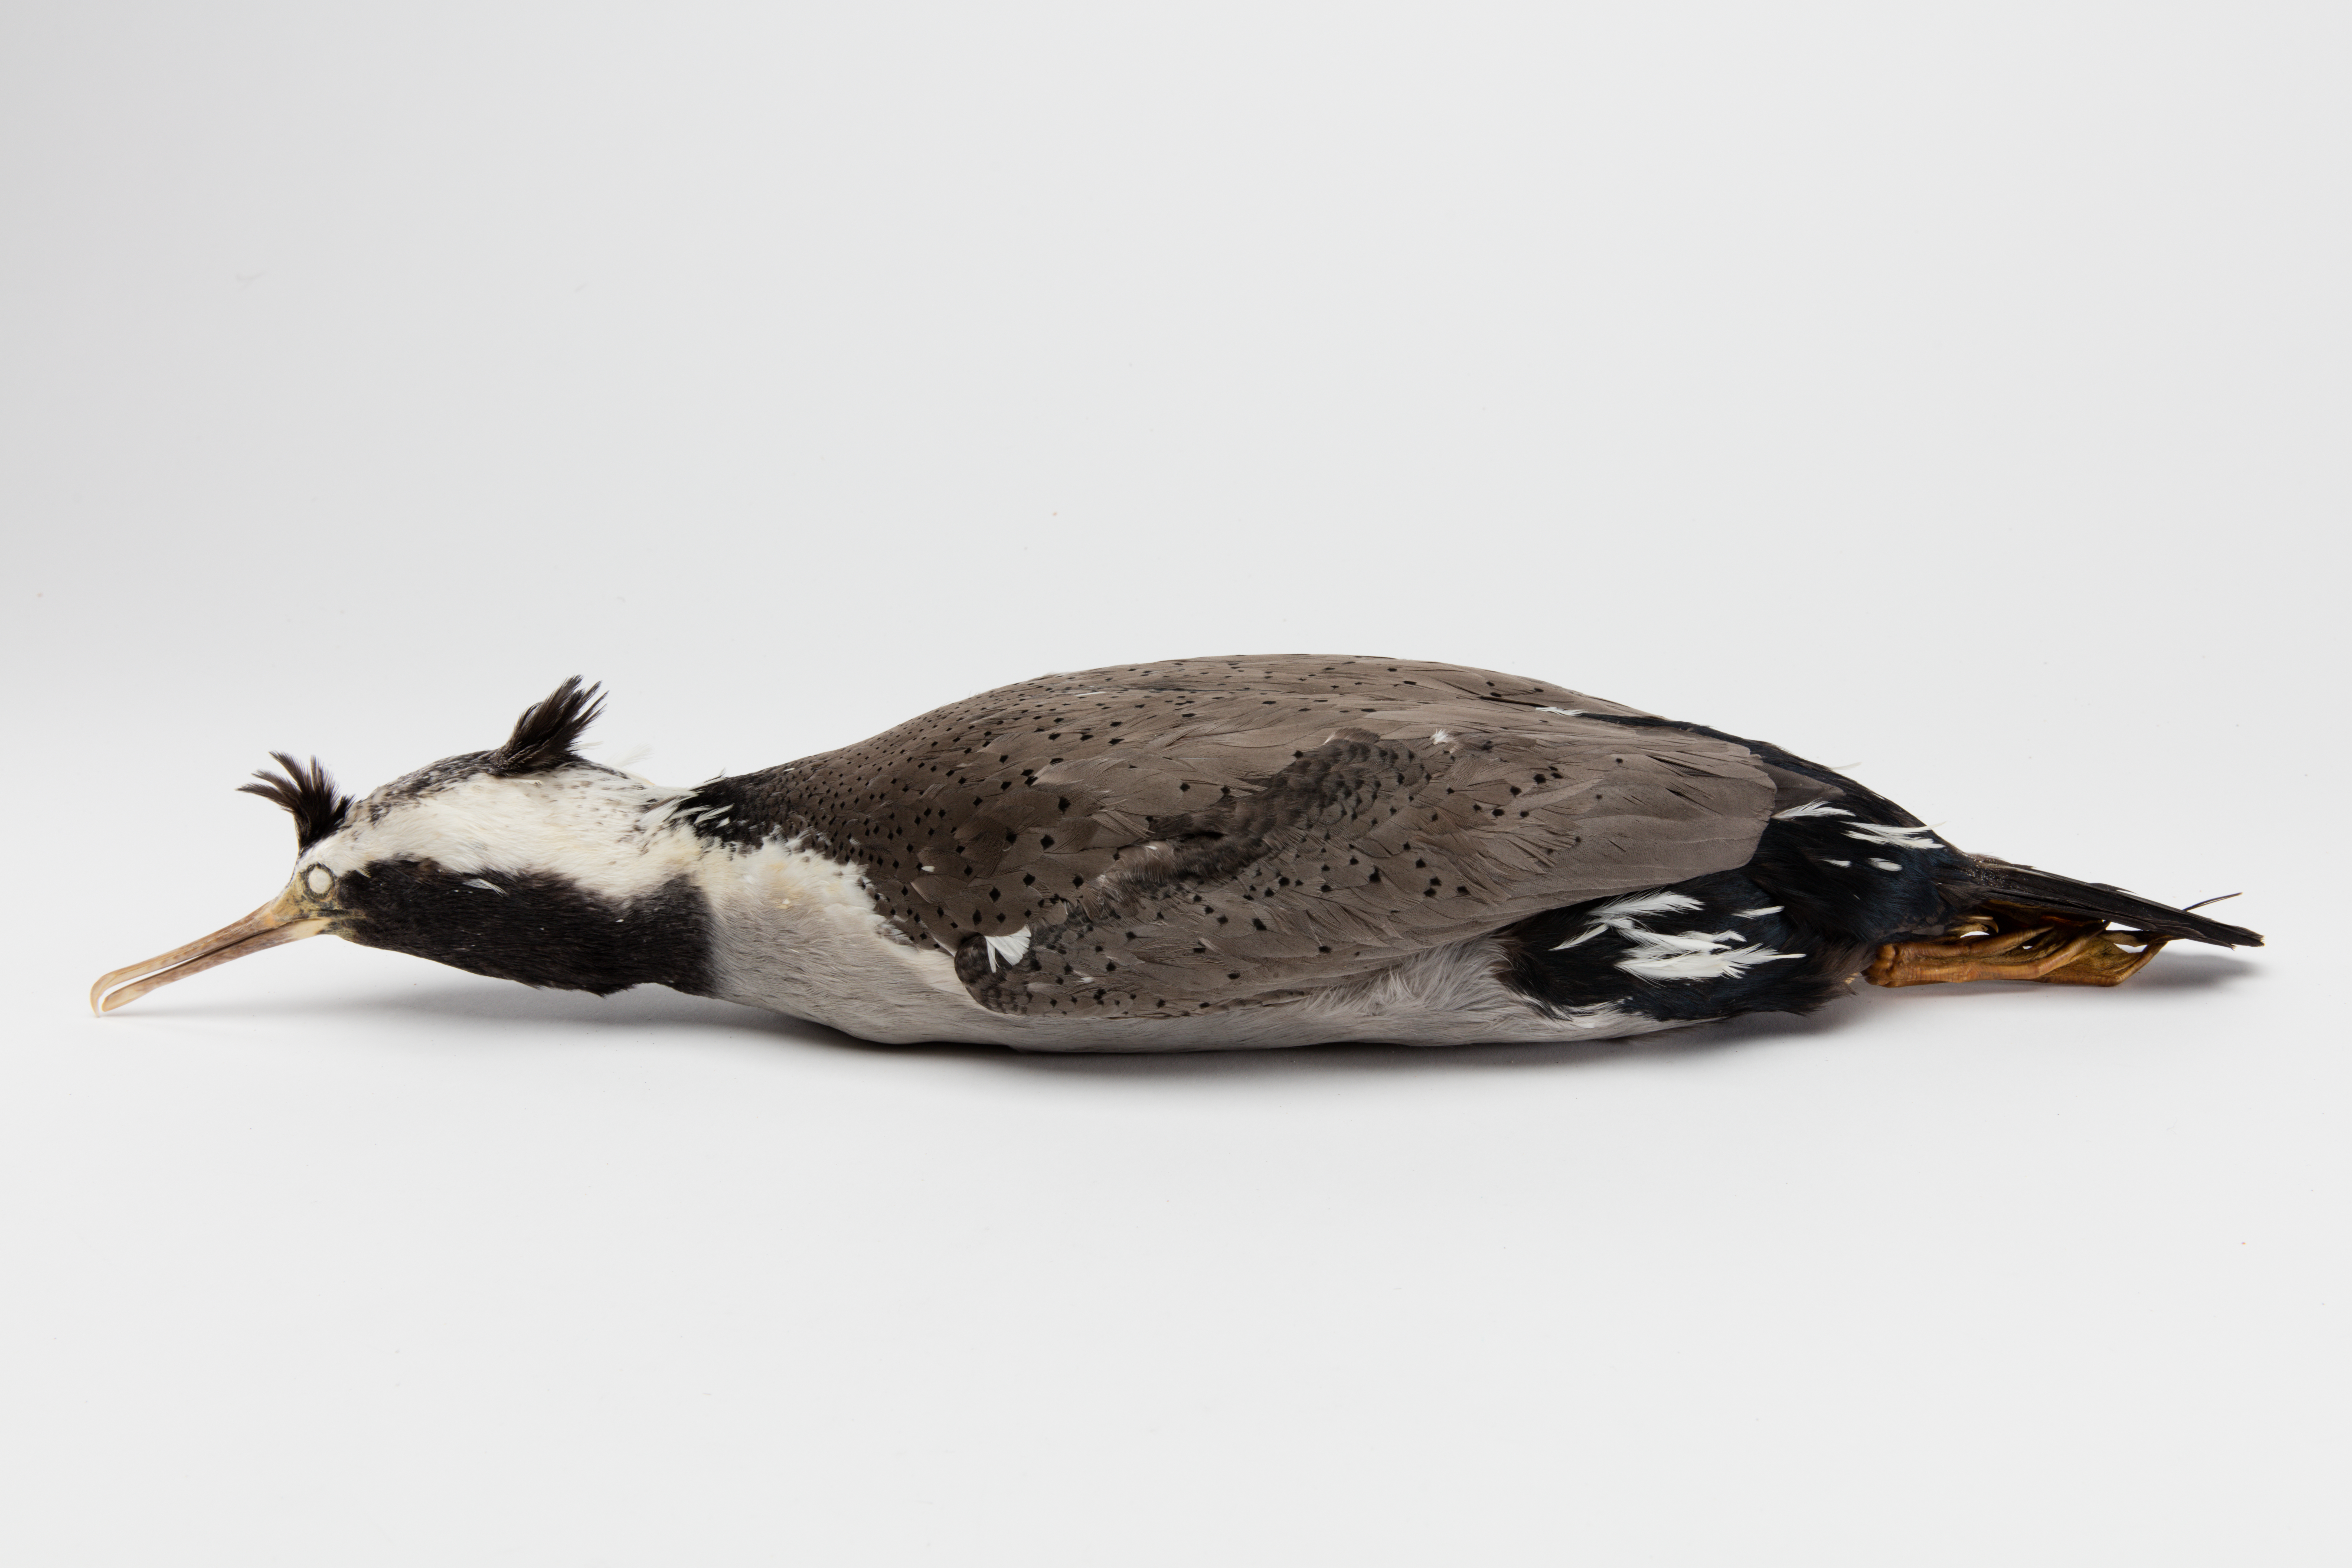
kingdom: Animalia
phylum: Chordata
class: Aves
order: Suliformes
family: Phalacrocoracidae
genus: Phalacrocorax
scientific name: Phalacrocorax punctatus
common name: Spotted shag
